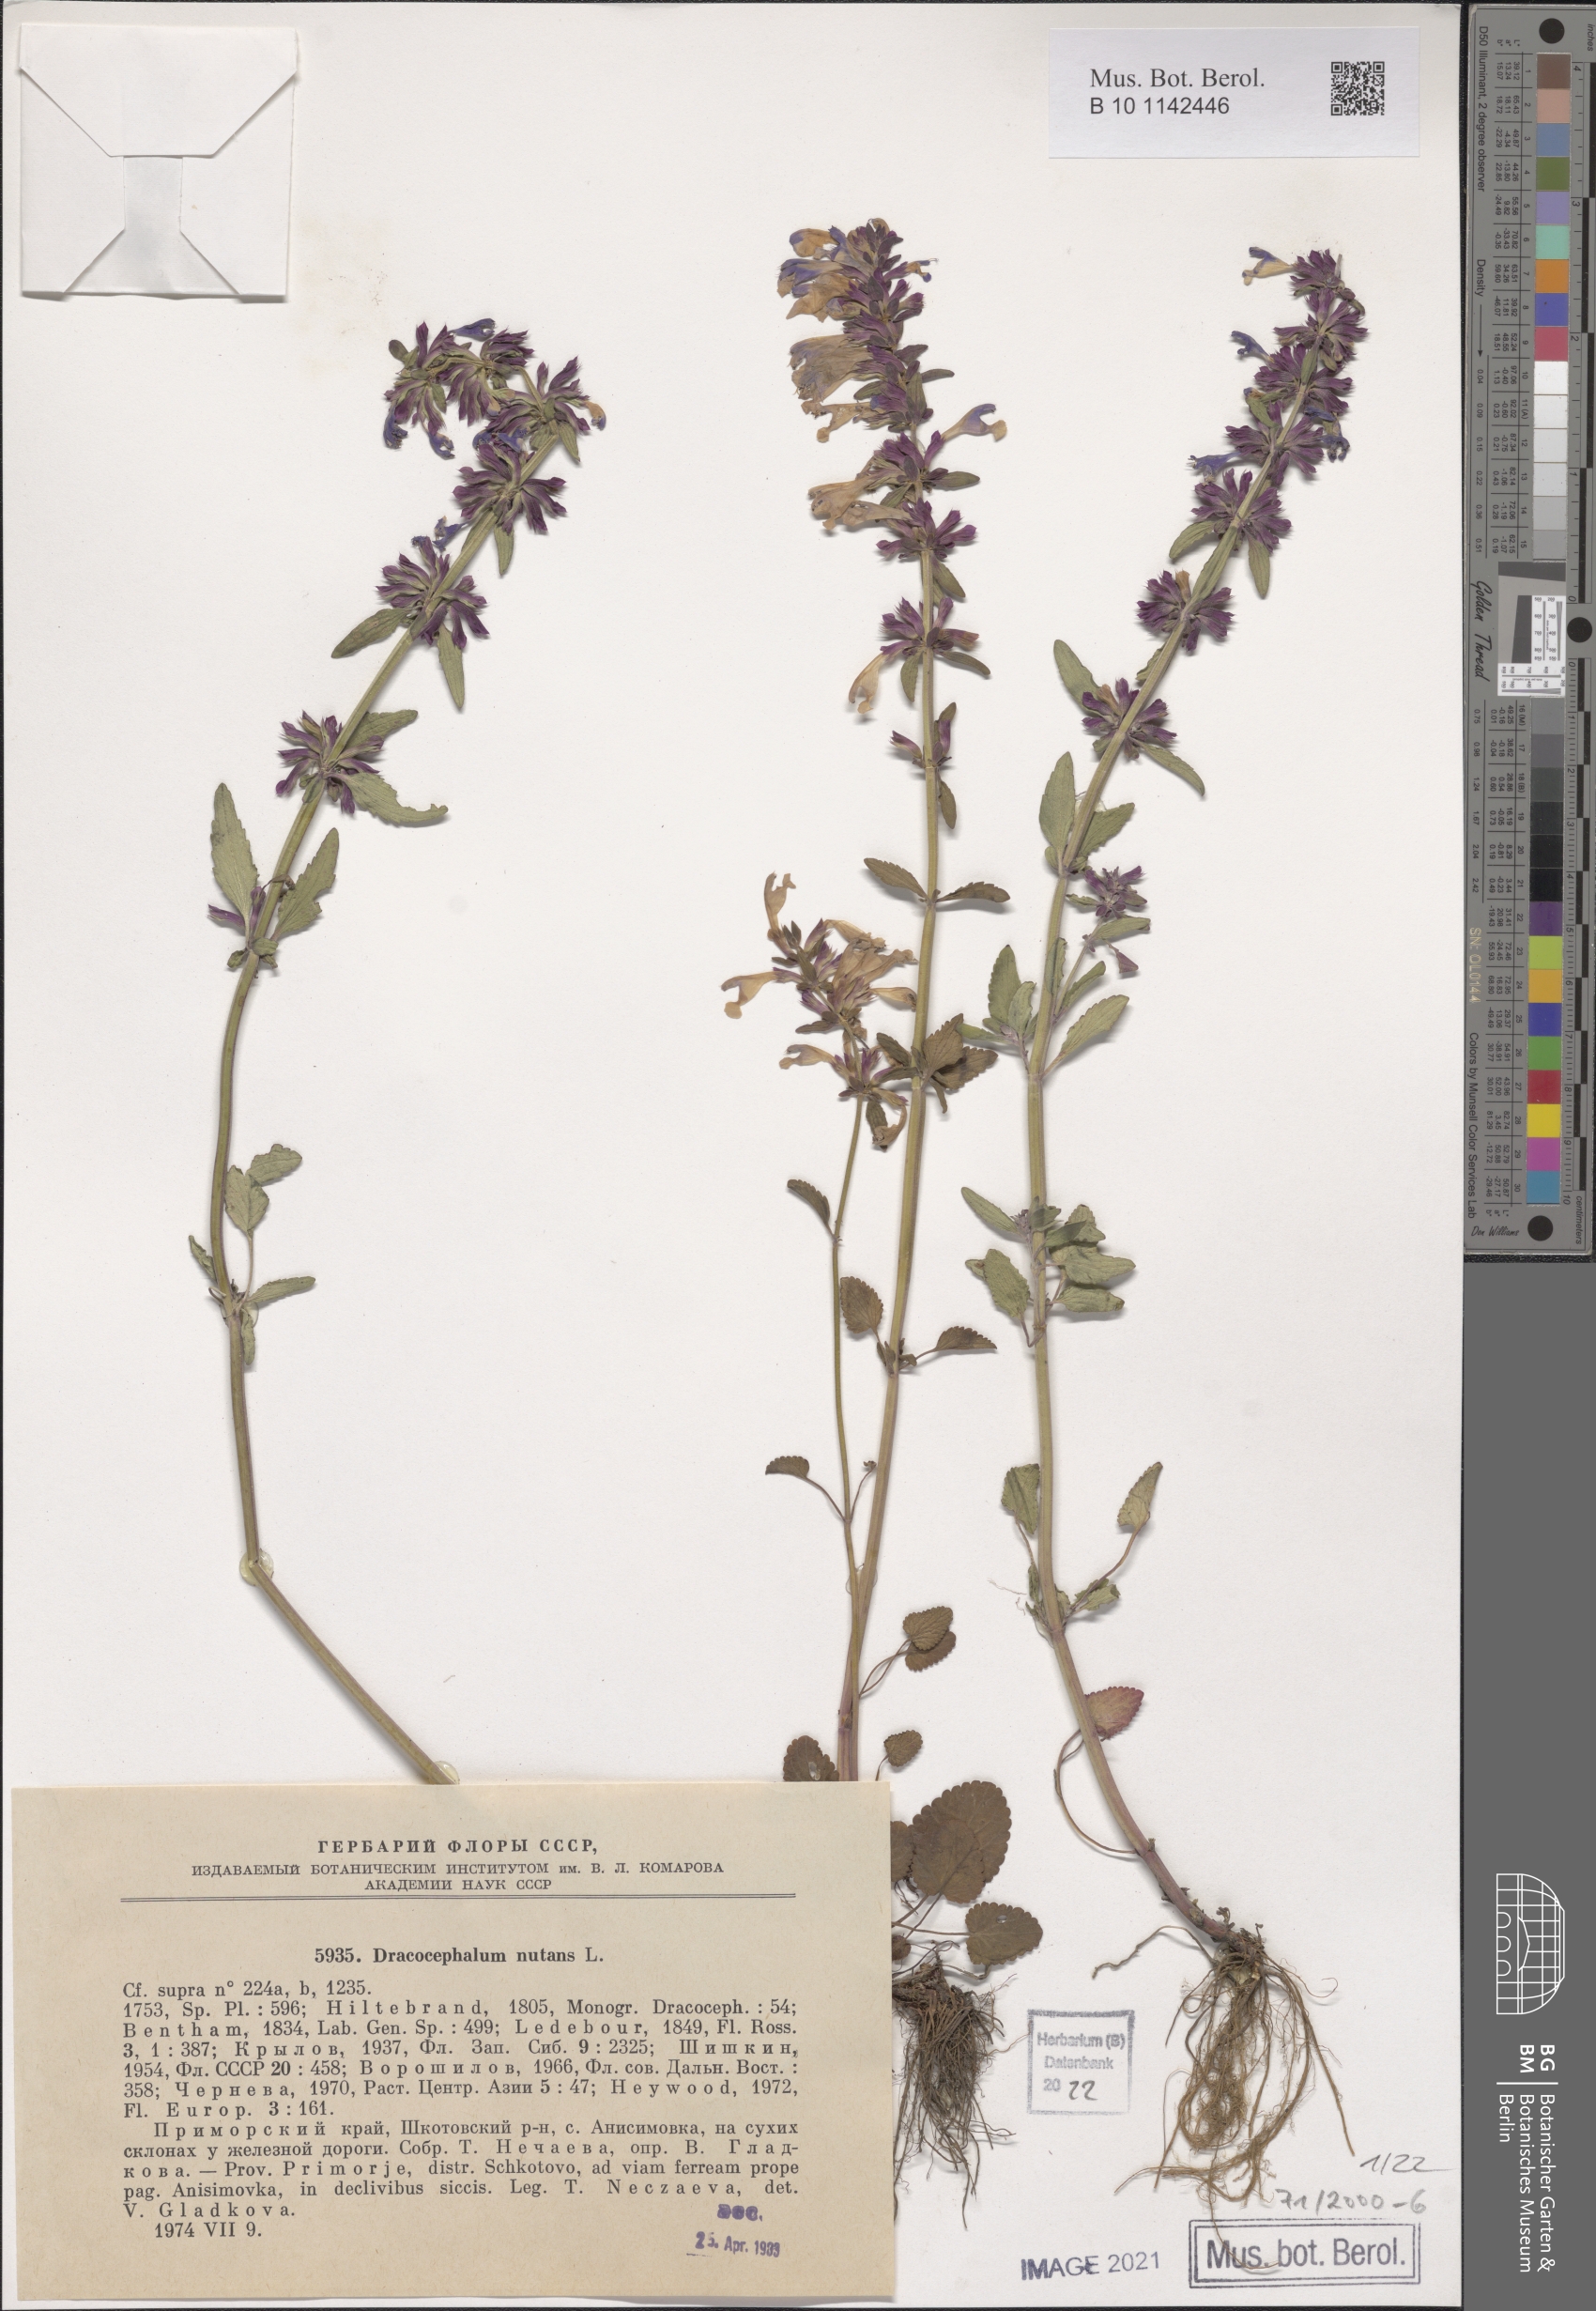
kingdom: Plantae
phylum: Tracheophyta
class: Magnoliopsida
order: Lamiales
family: Lamiaceae
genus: Dracocephalum
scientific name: Dracocephalum nutans
